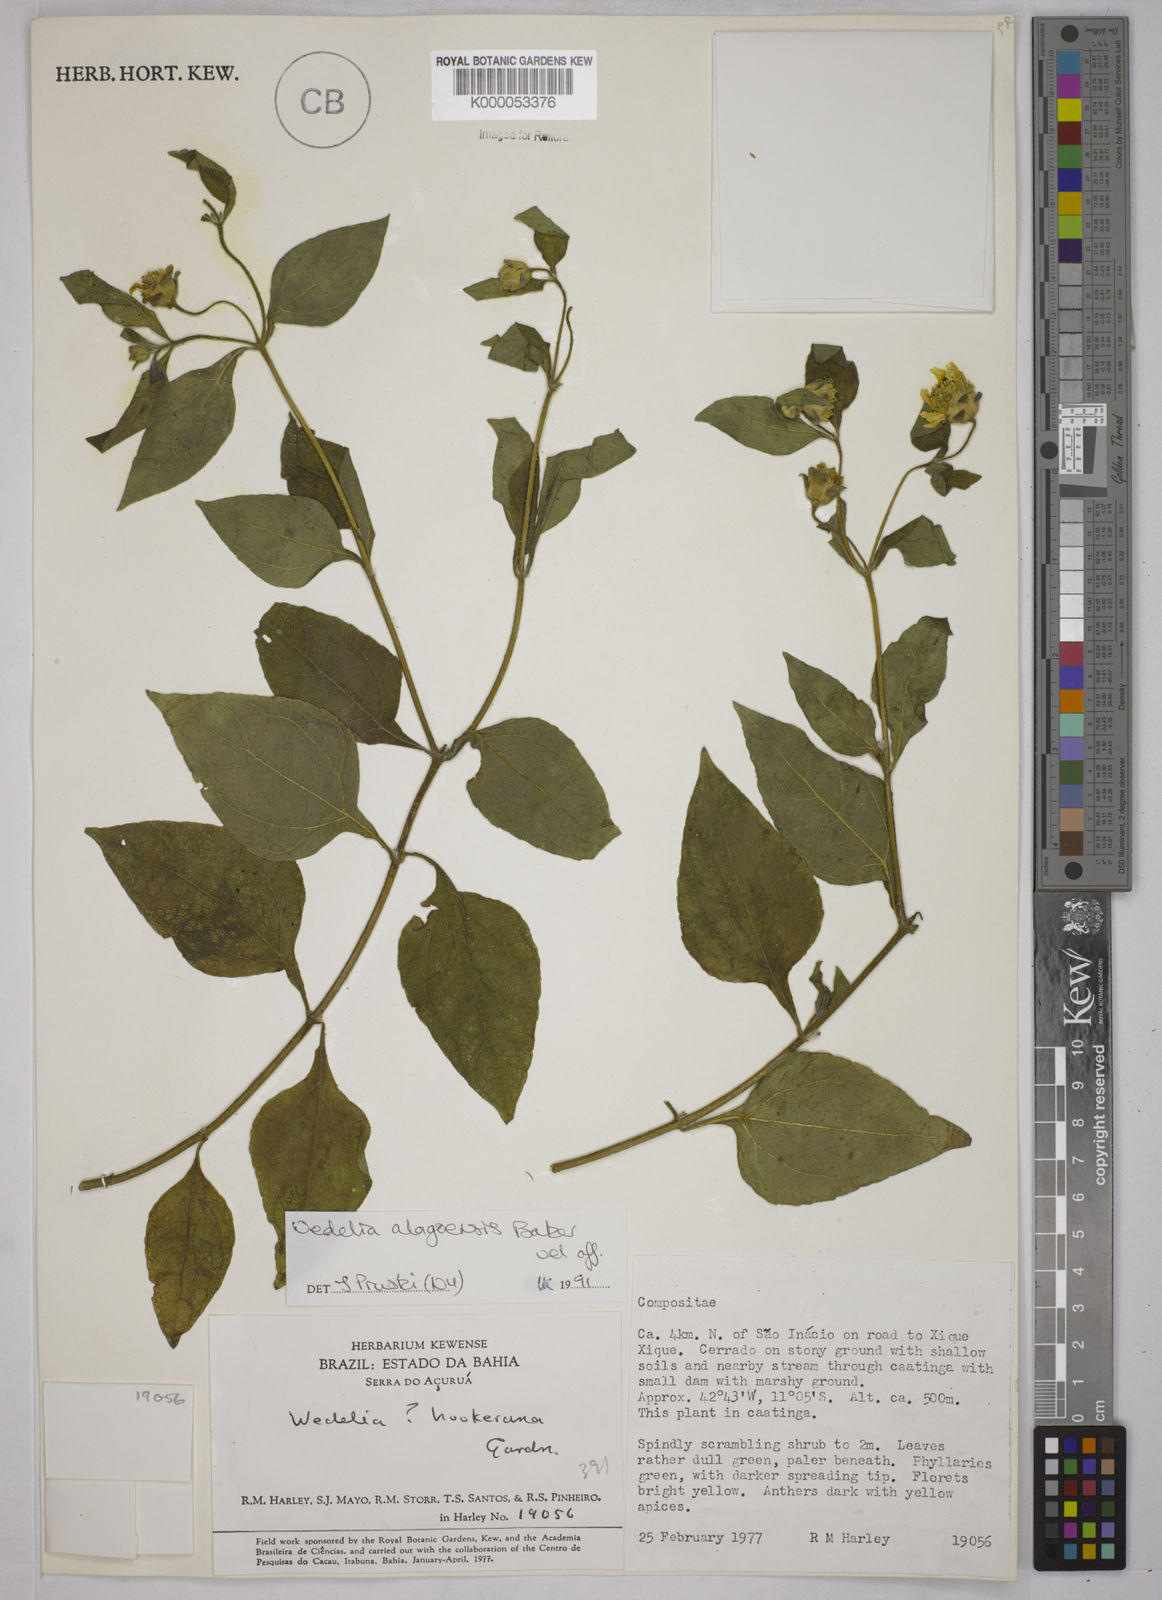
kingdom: Plantae
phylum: Tracheophyta
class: Magnoliopsida
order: Asterales
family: Asteraceae
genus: Wedelia
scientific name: Wedelia alagoensis
